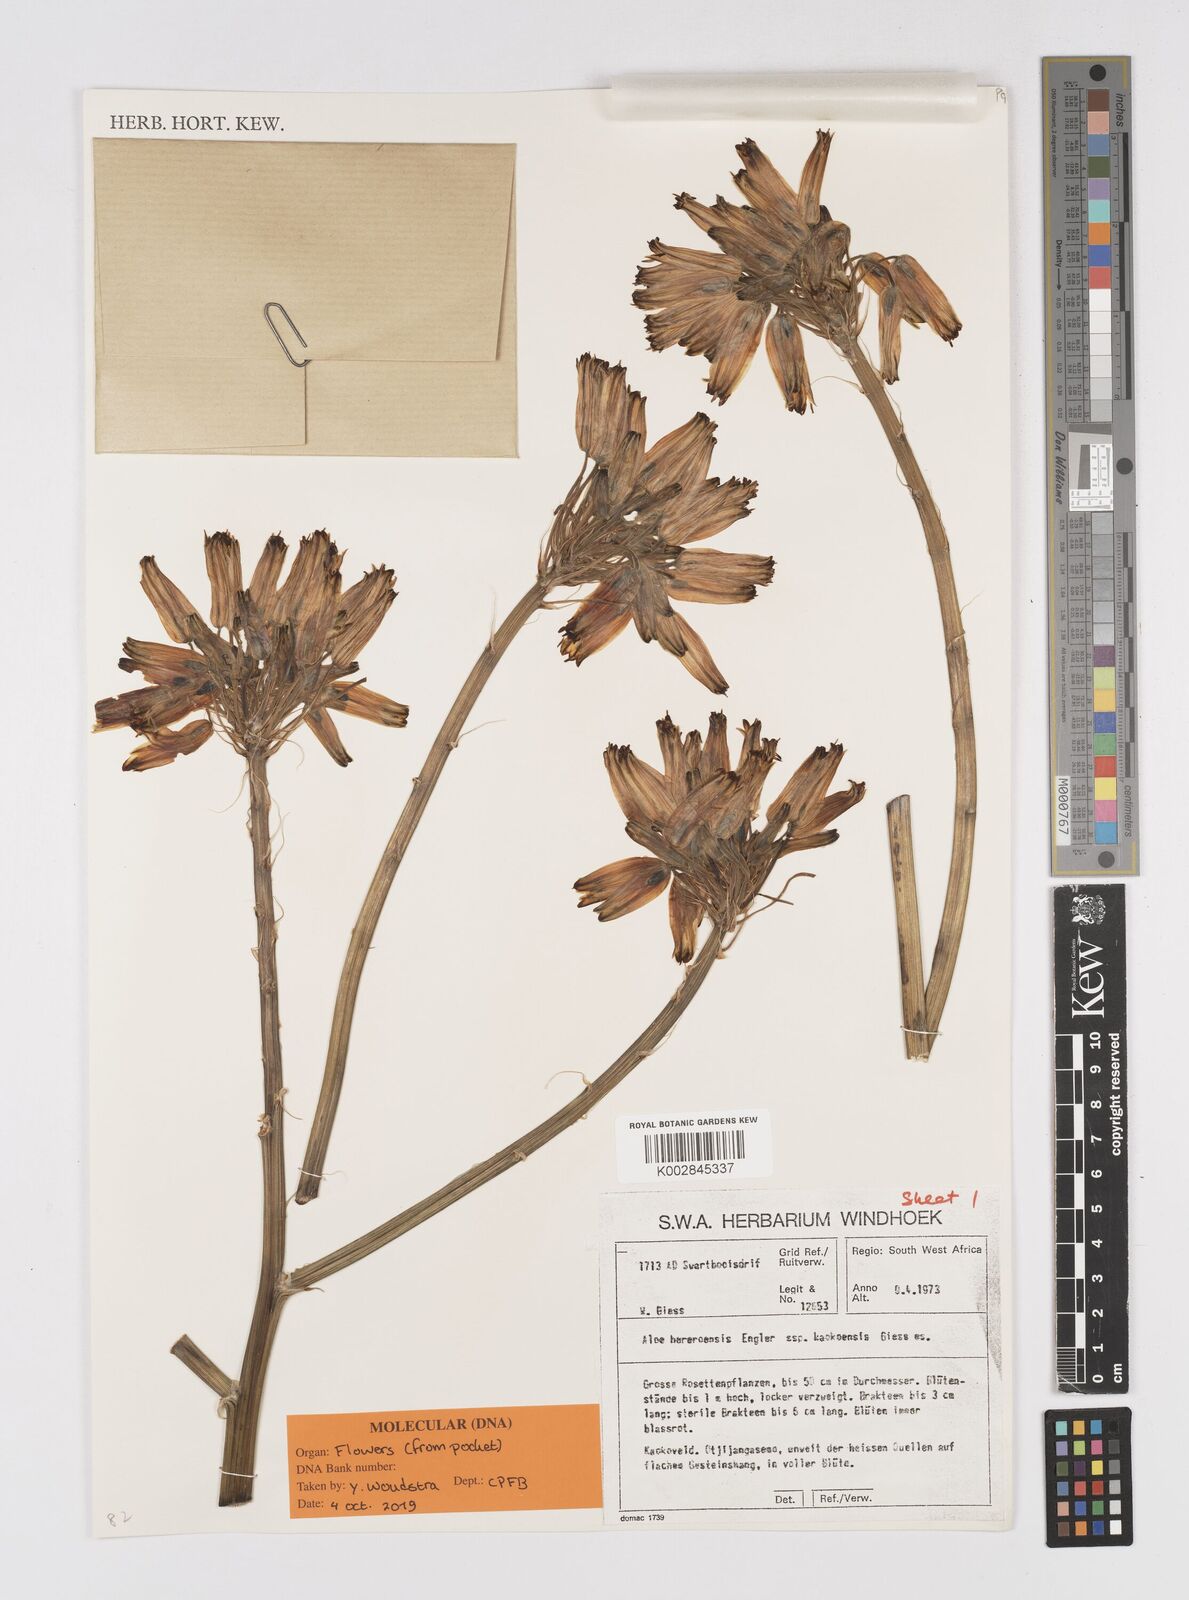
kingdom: Plantae
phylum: Tracheophyta
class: Liliopsida
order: Asparagales
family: Asphodelaceae
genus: Aloe
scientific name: Aloe hereroensis
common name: Herero aloe
